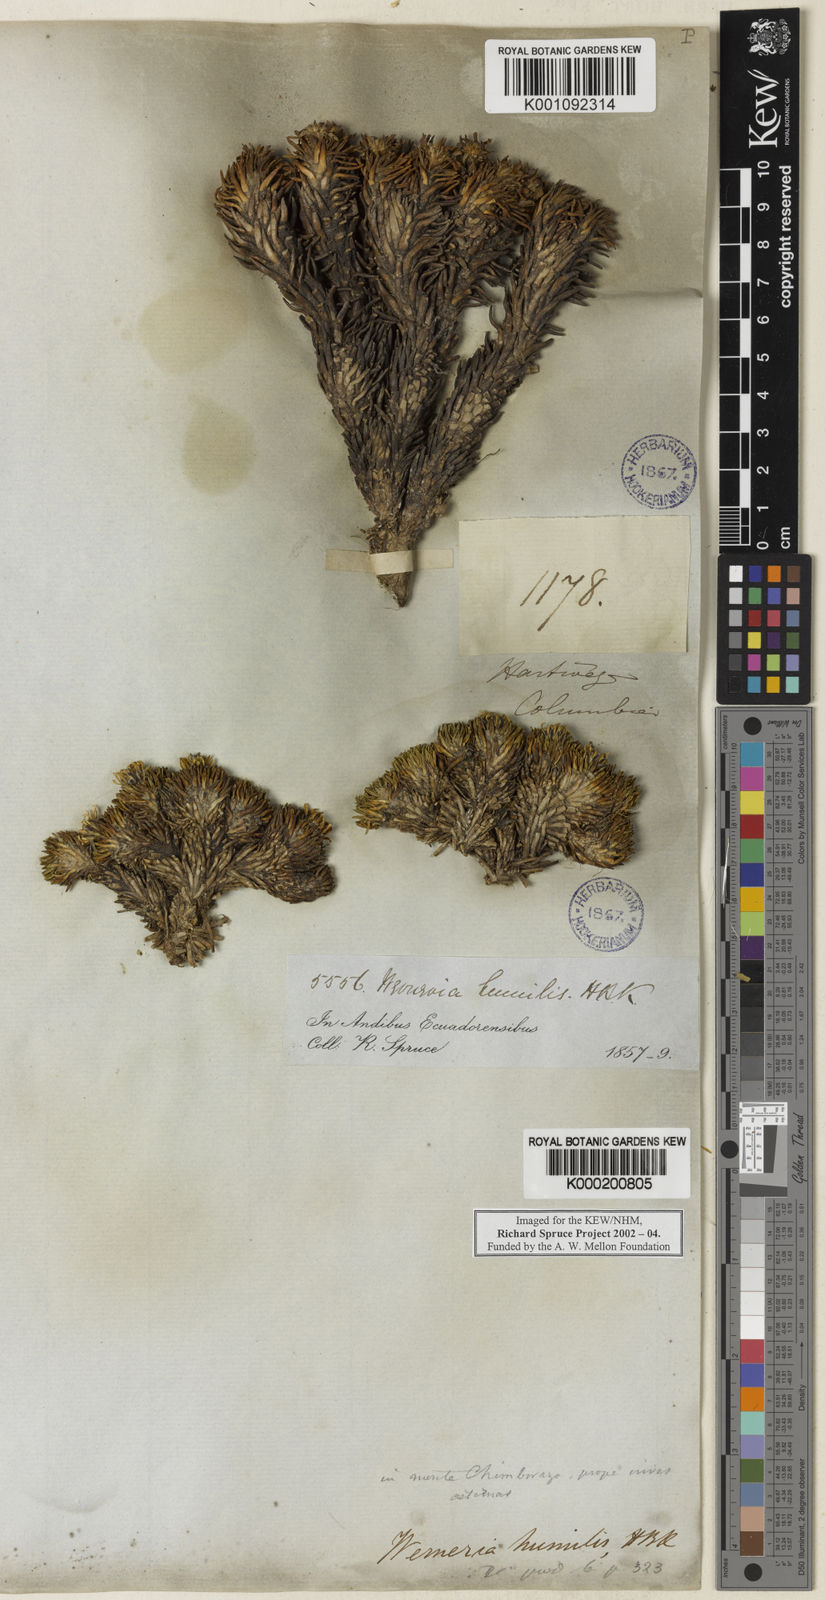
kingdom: Plantae
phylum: Tracheophyta
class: Magnoliopsida
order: Asterales
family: Asteraceae
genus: Werneria
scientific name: Werneria humilis
